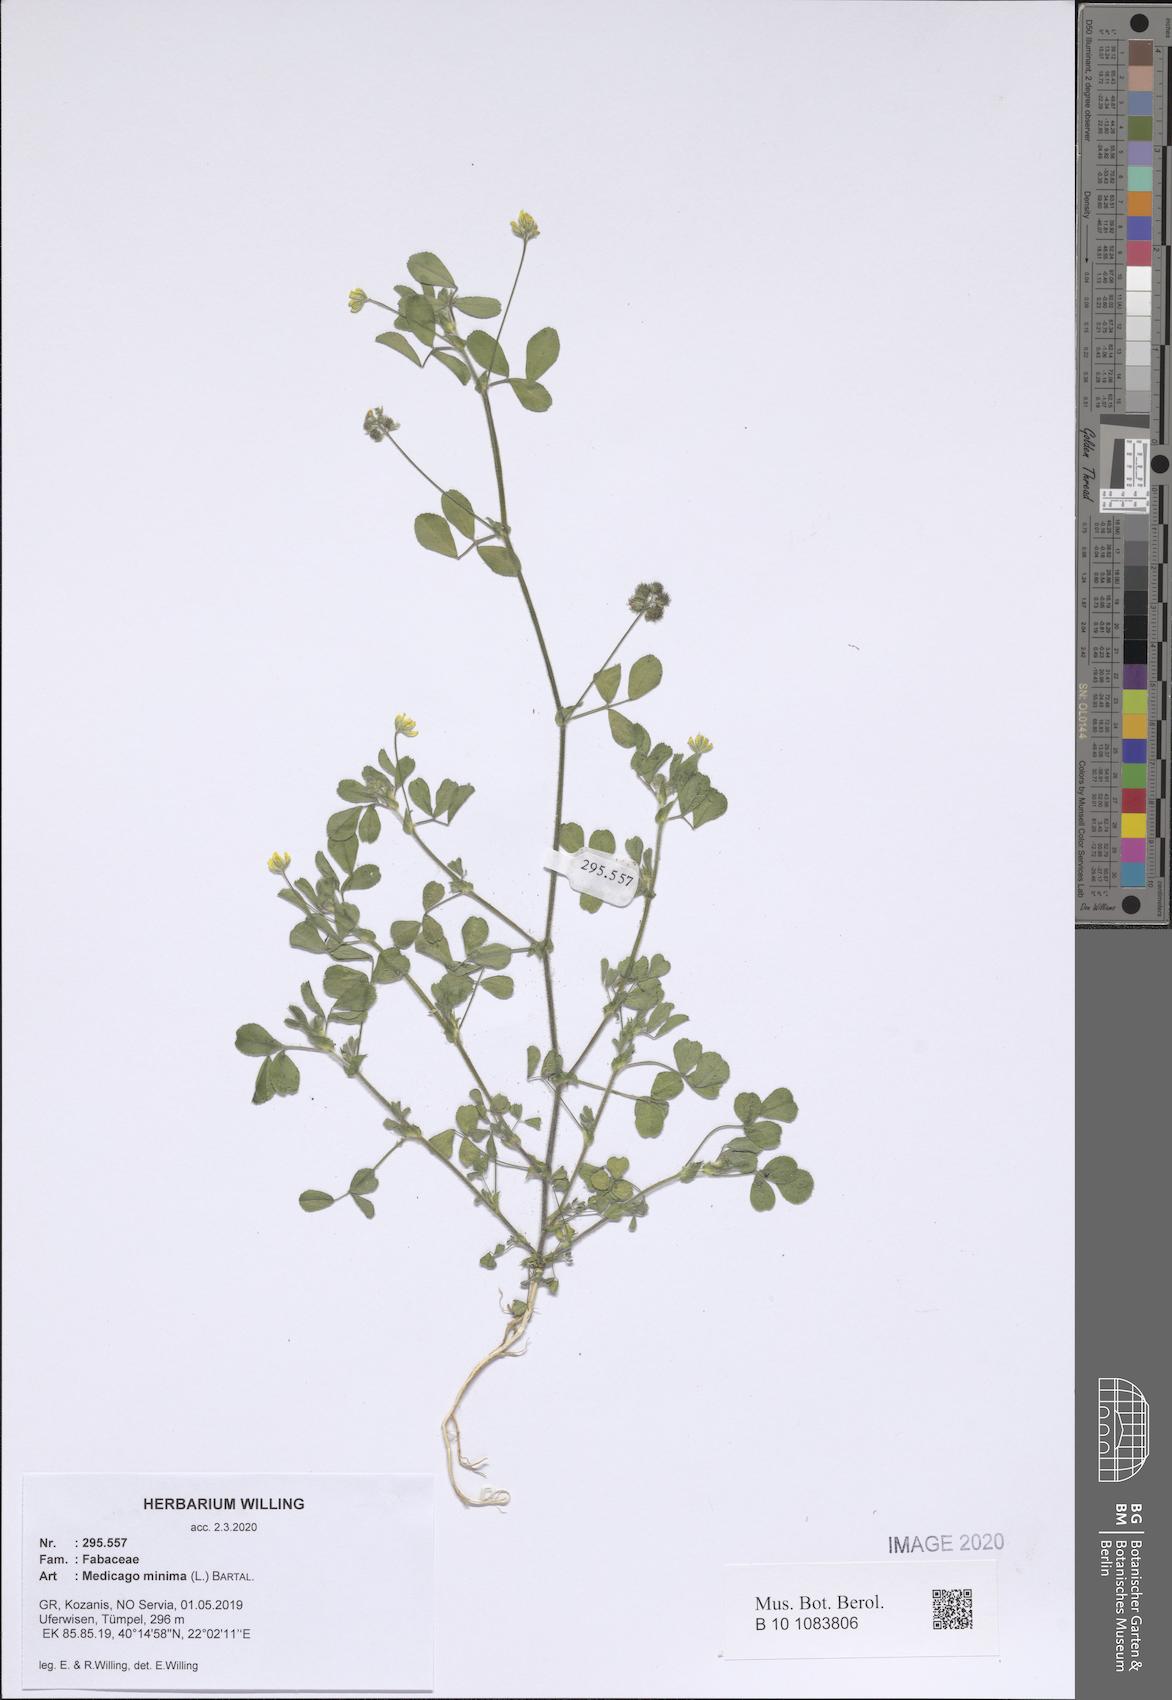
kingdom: Plantae
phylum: Tracheophyta
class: Magnoliopsida
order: Fabales
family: Fabaceae
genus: Medicago
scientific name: Medicago minima
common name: Little bur-clover
